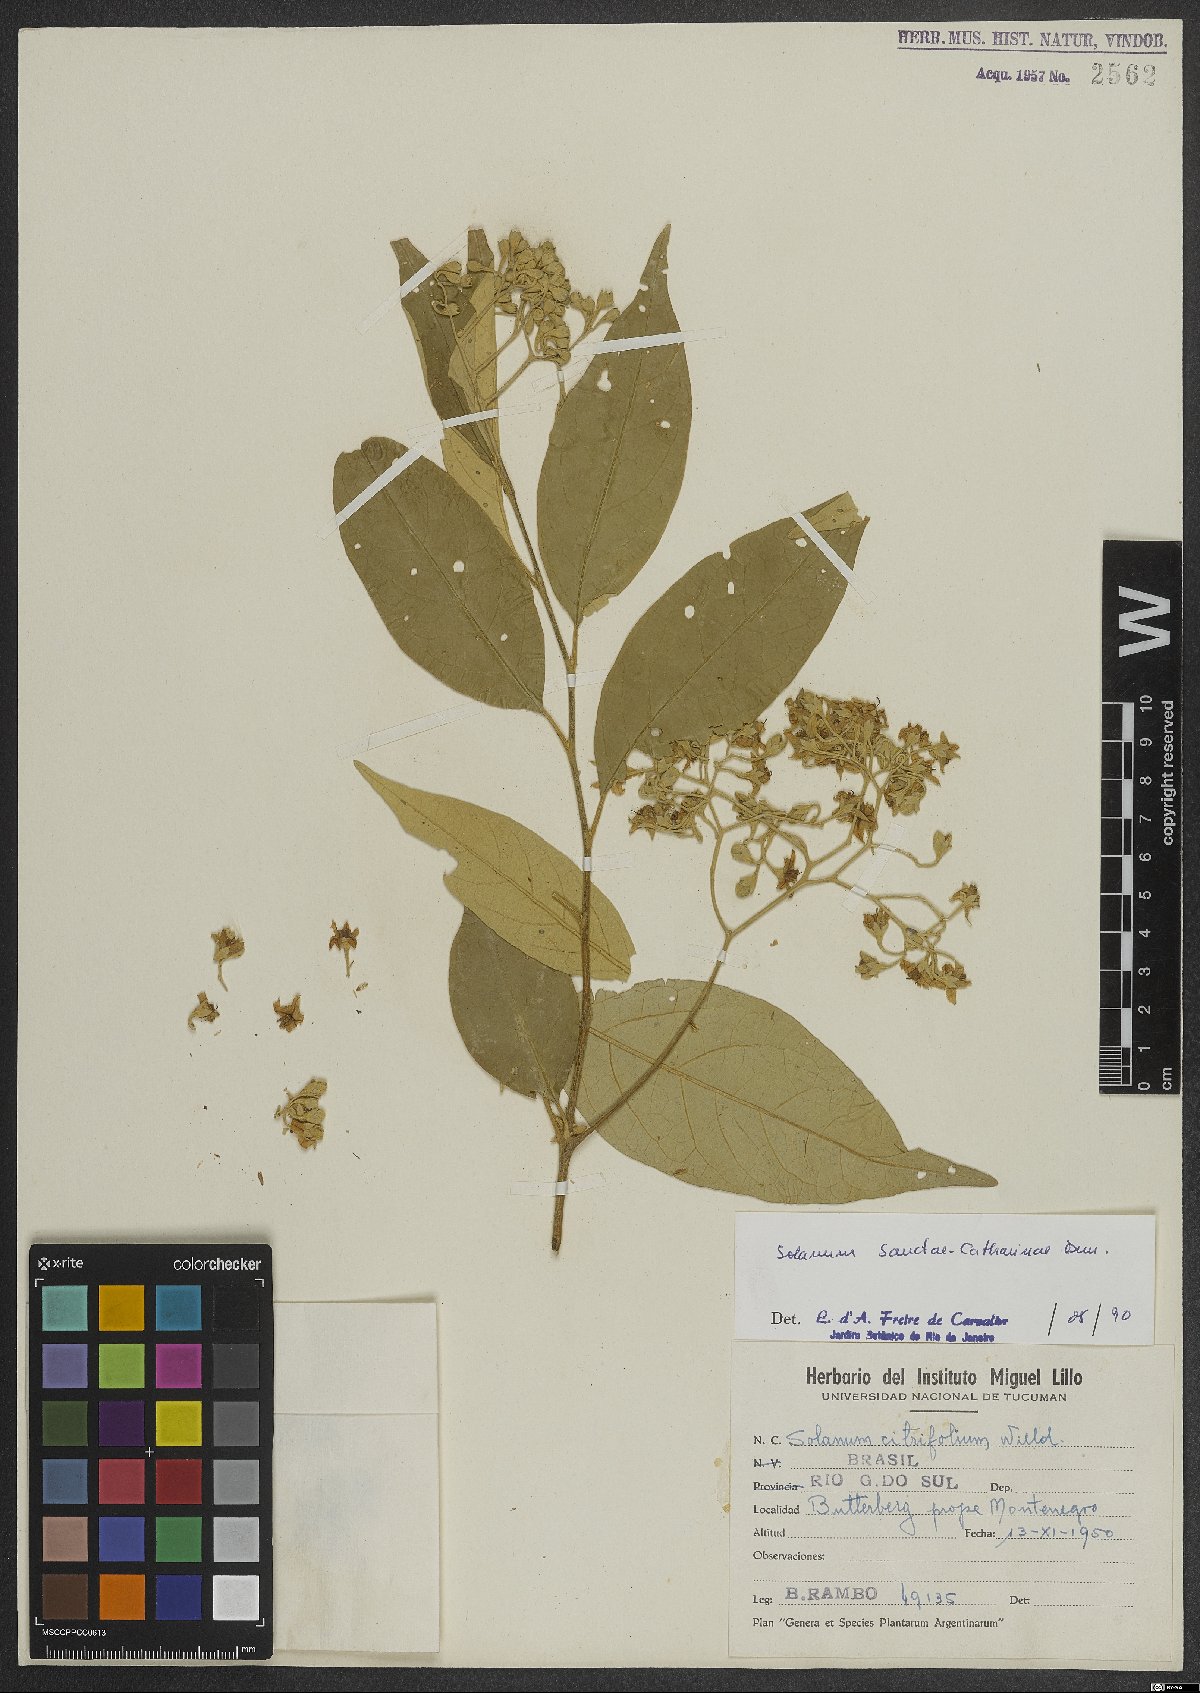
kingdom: Plantae
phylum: Tracheophyta
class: Magnoliopsida
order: Solanales
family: Solanaceae
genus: Solanum
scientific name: Solanum sanctae-catharinae
